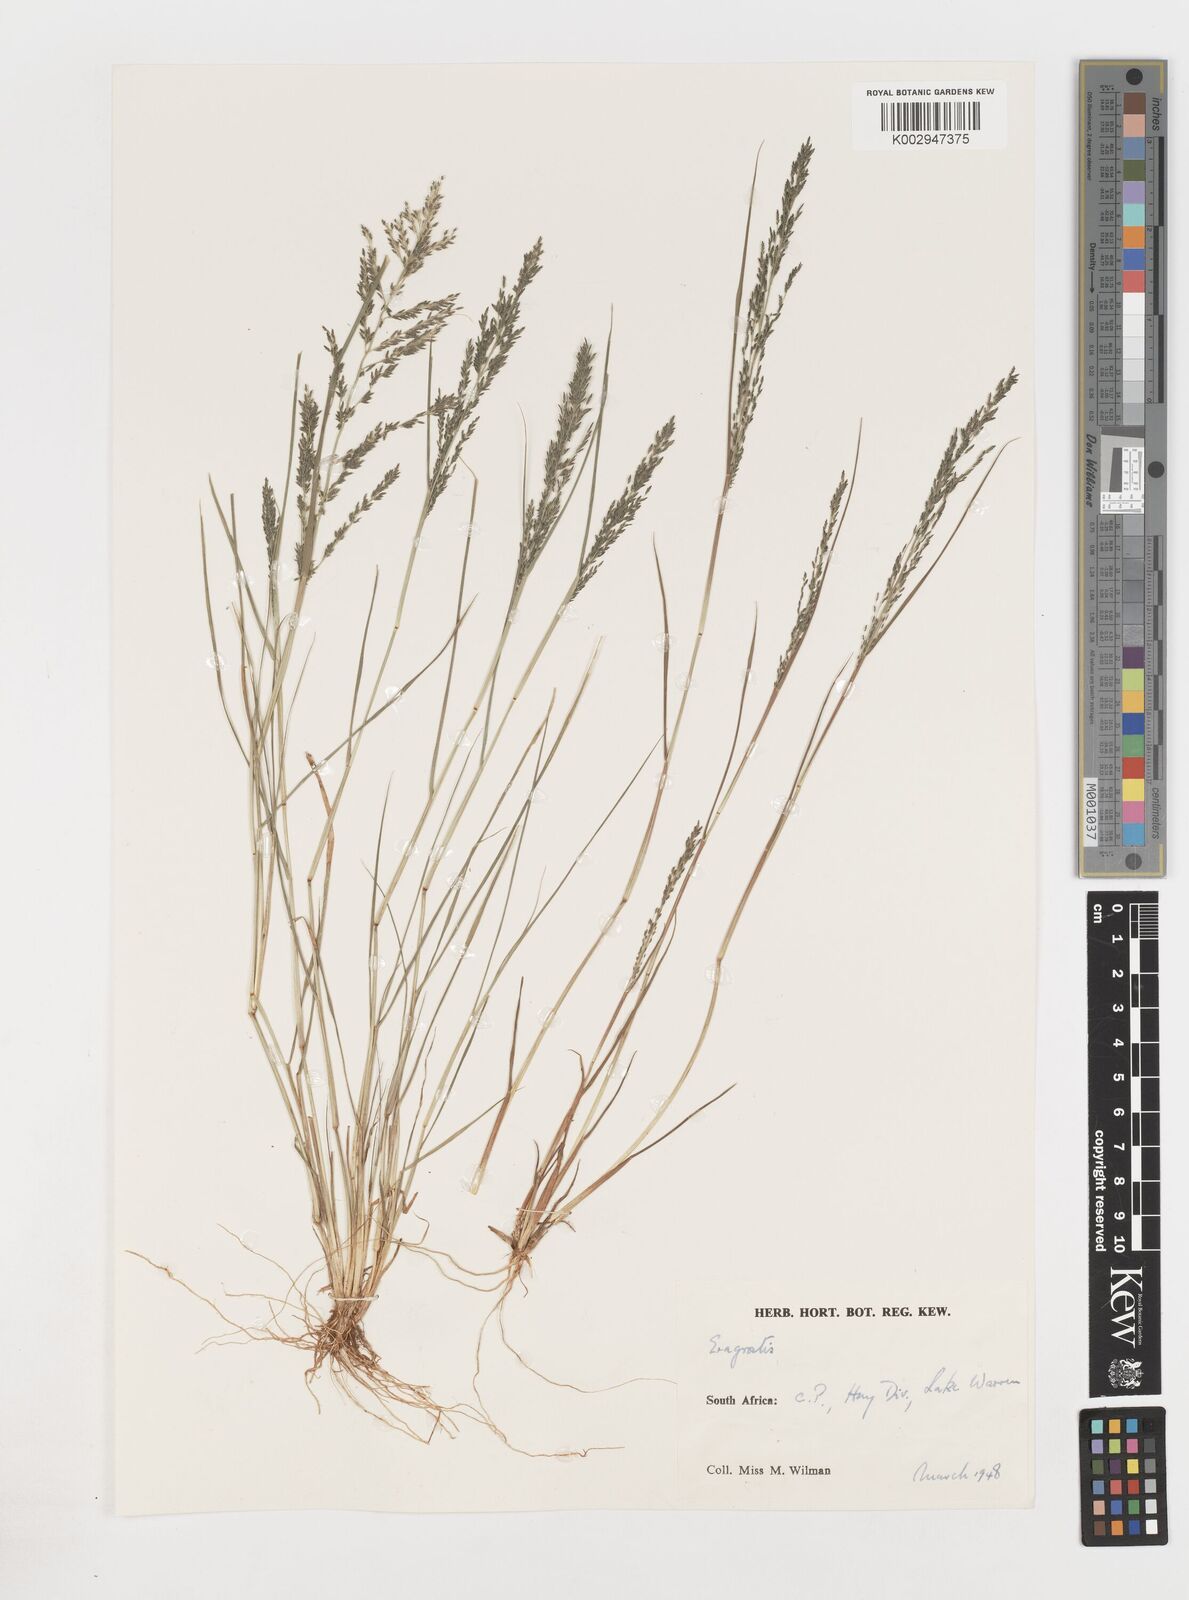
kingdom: Plantae
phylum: Tracheophyta
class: Liliopsida
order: Poales
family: Poaceae
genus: Eragrostis
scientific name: Eragrostis
